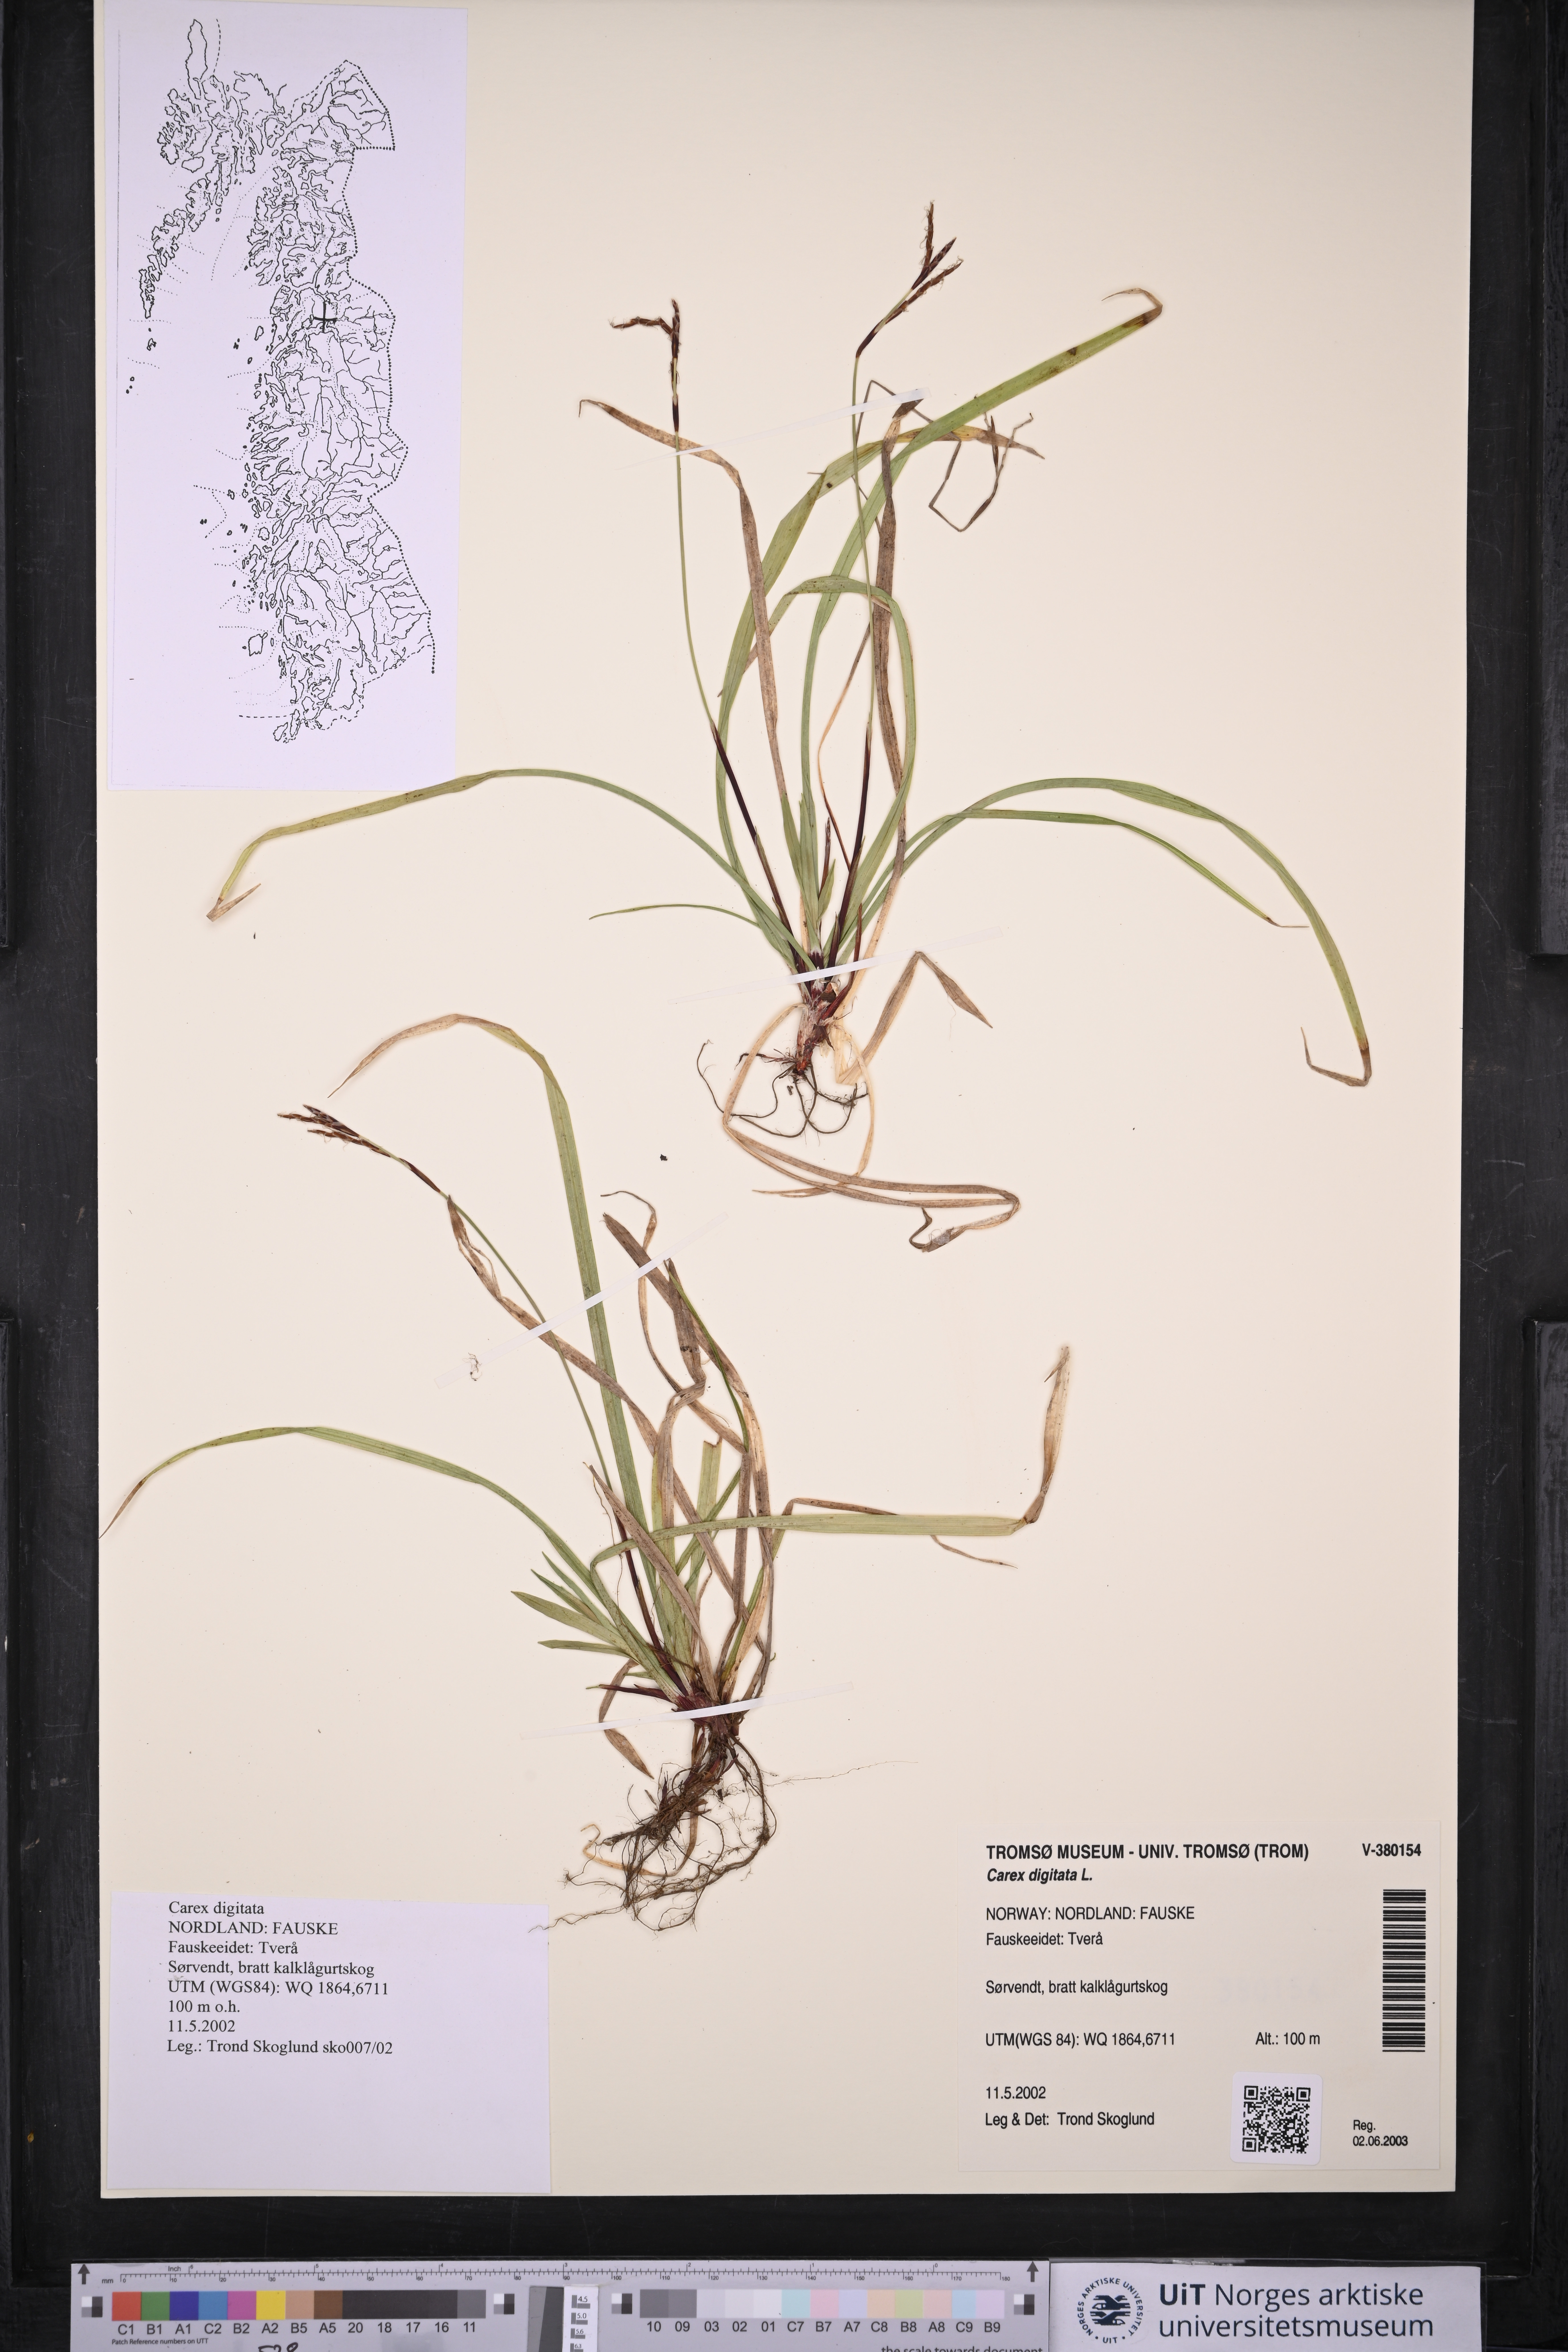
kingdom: Plantae
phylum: Tracheophyta
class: Liliopsida
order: Poales
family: Cyperaceae
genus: Carex
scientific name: Carex digitata
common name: Fingered sedge
